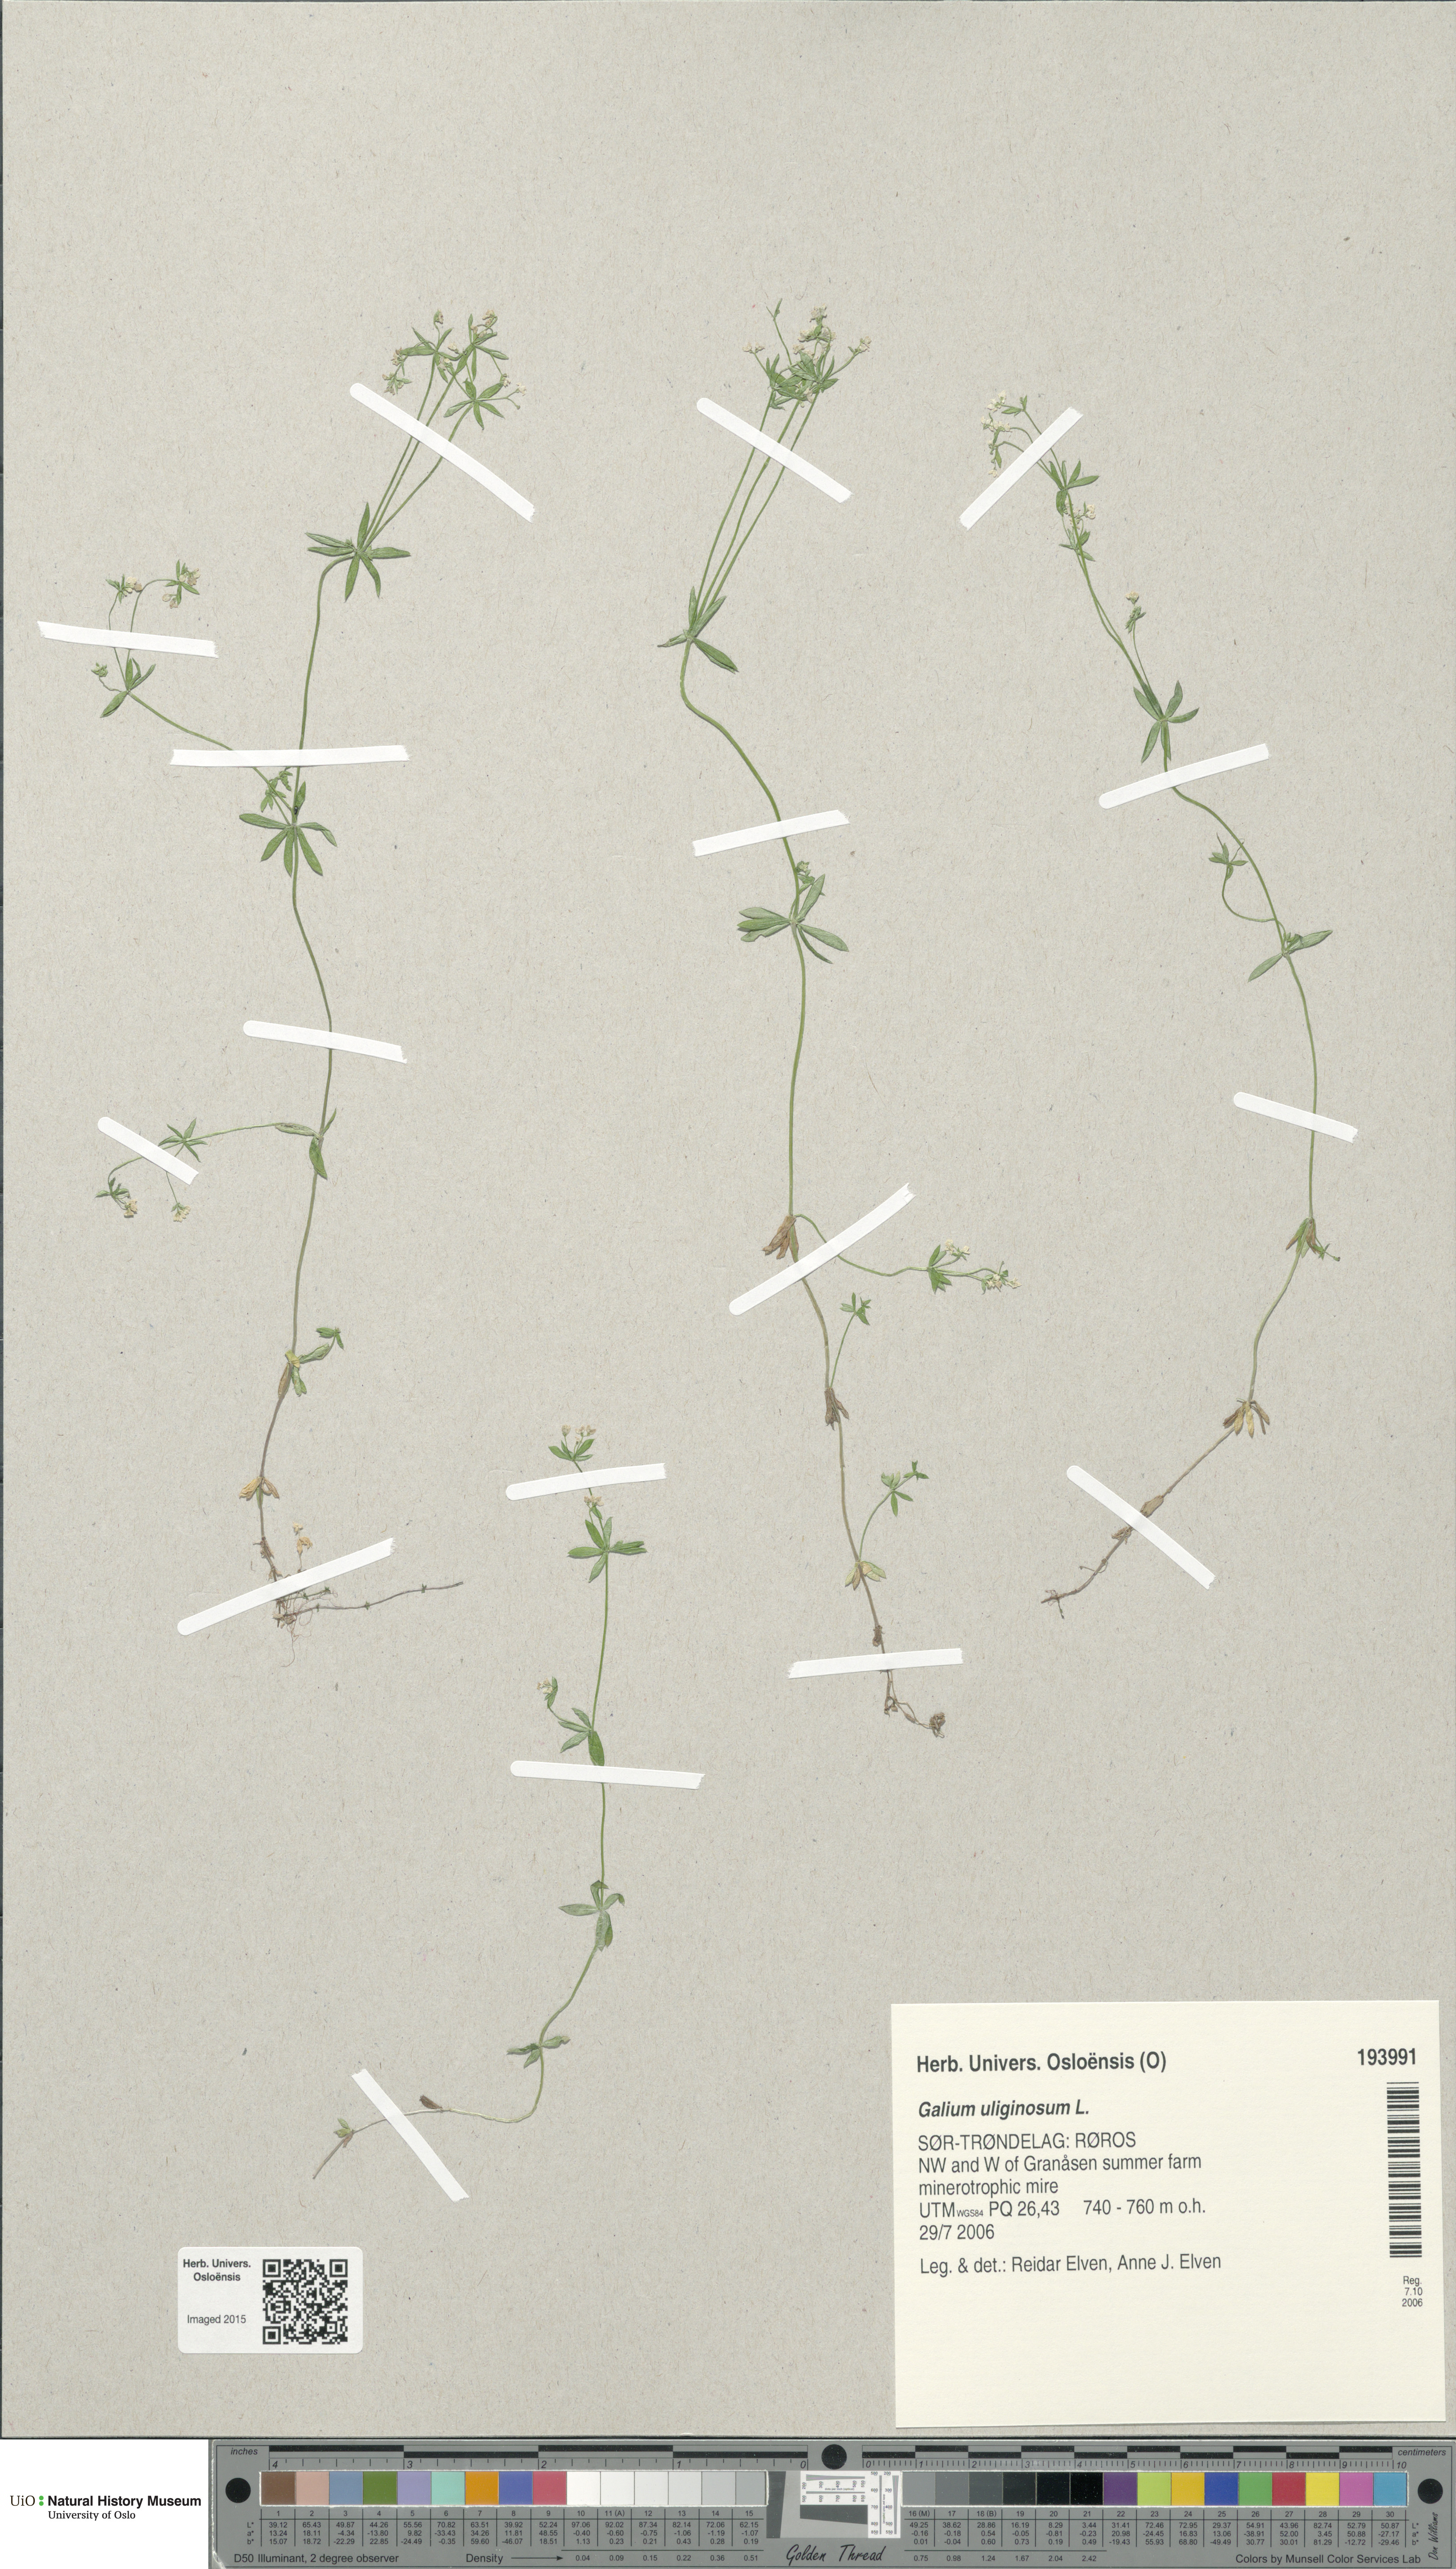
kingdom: Plantae
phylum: Tracheophyta
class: Magnoliopsida
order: Gentianales
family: Rubiaceae
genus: Galium
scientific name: Galium uliginosum
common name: Fen bedstraw
